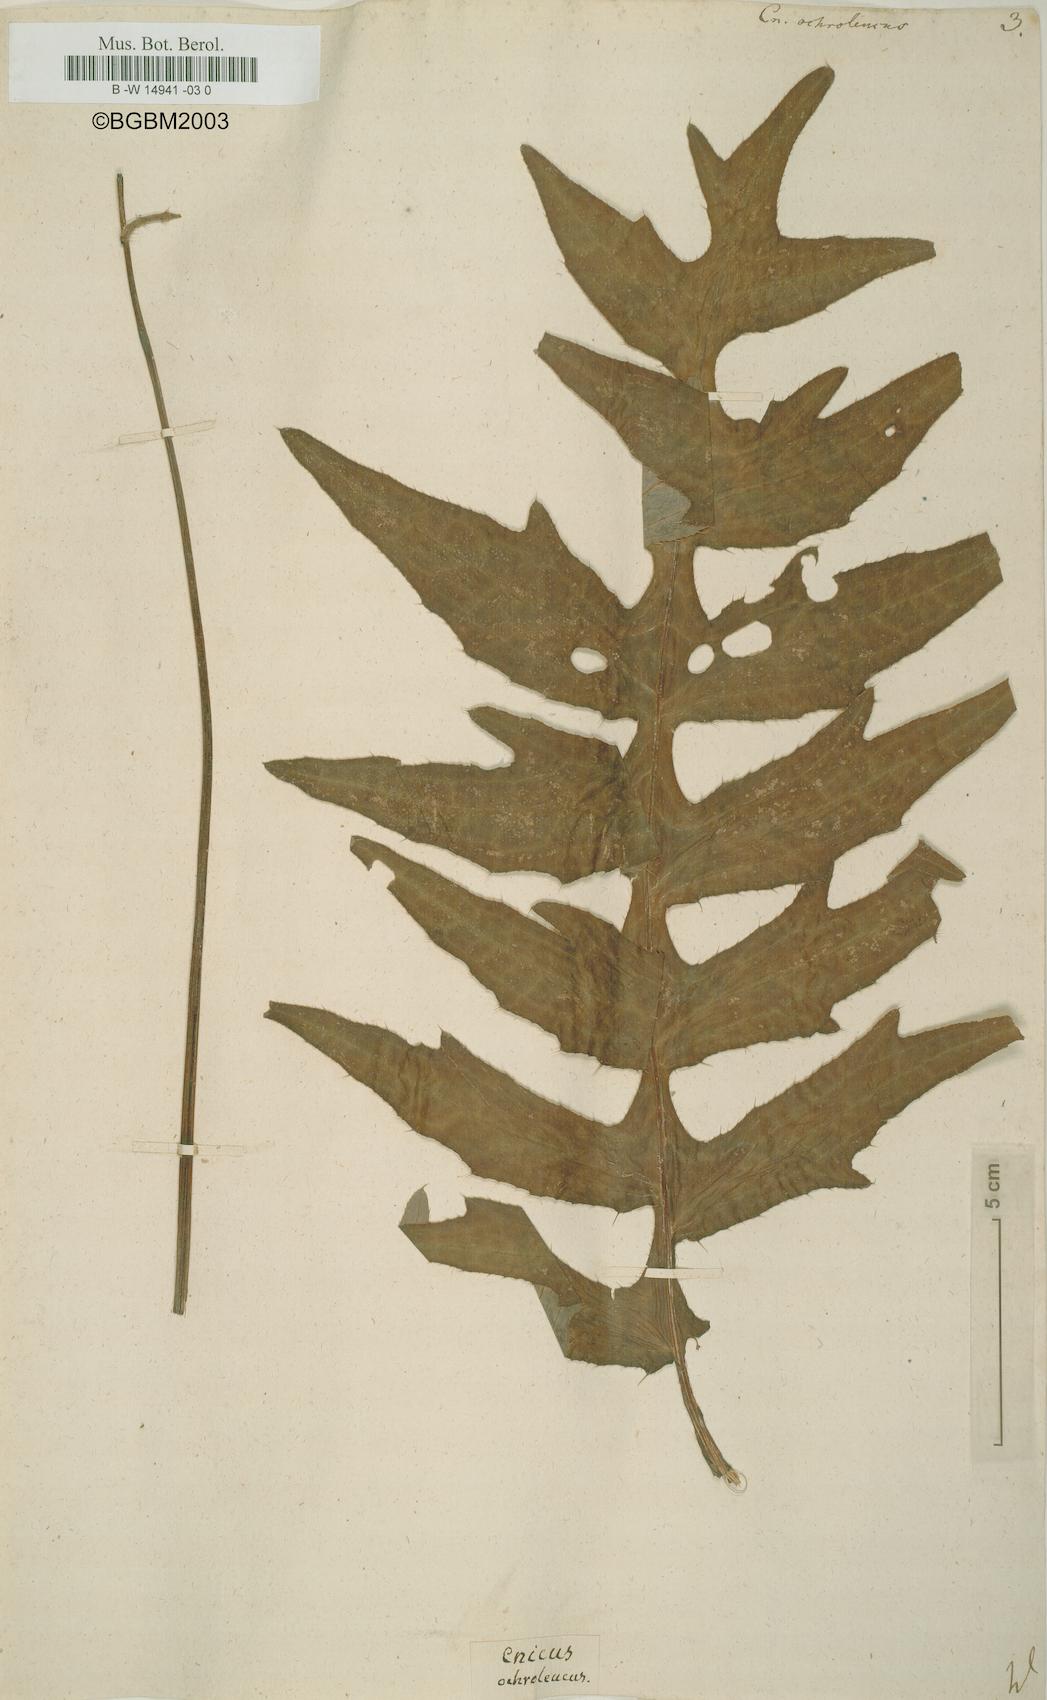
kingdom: Plantae
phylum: Tracheophyta
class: Magnoliopsida
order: Asterales
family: Asteraceae
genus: Cirsium
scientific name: Cirsium ochroleucum
